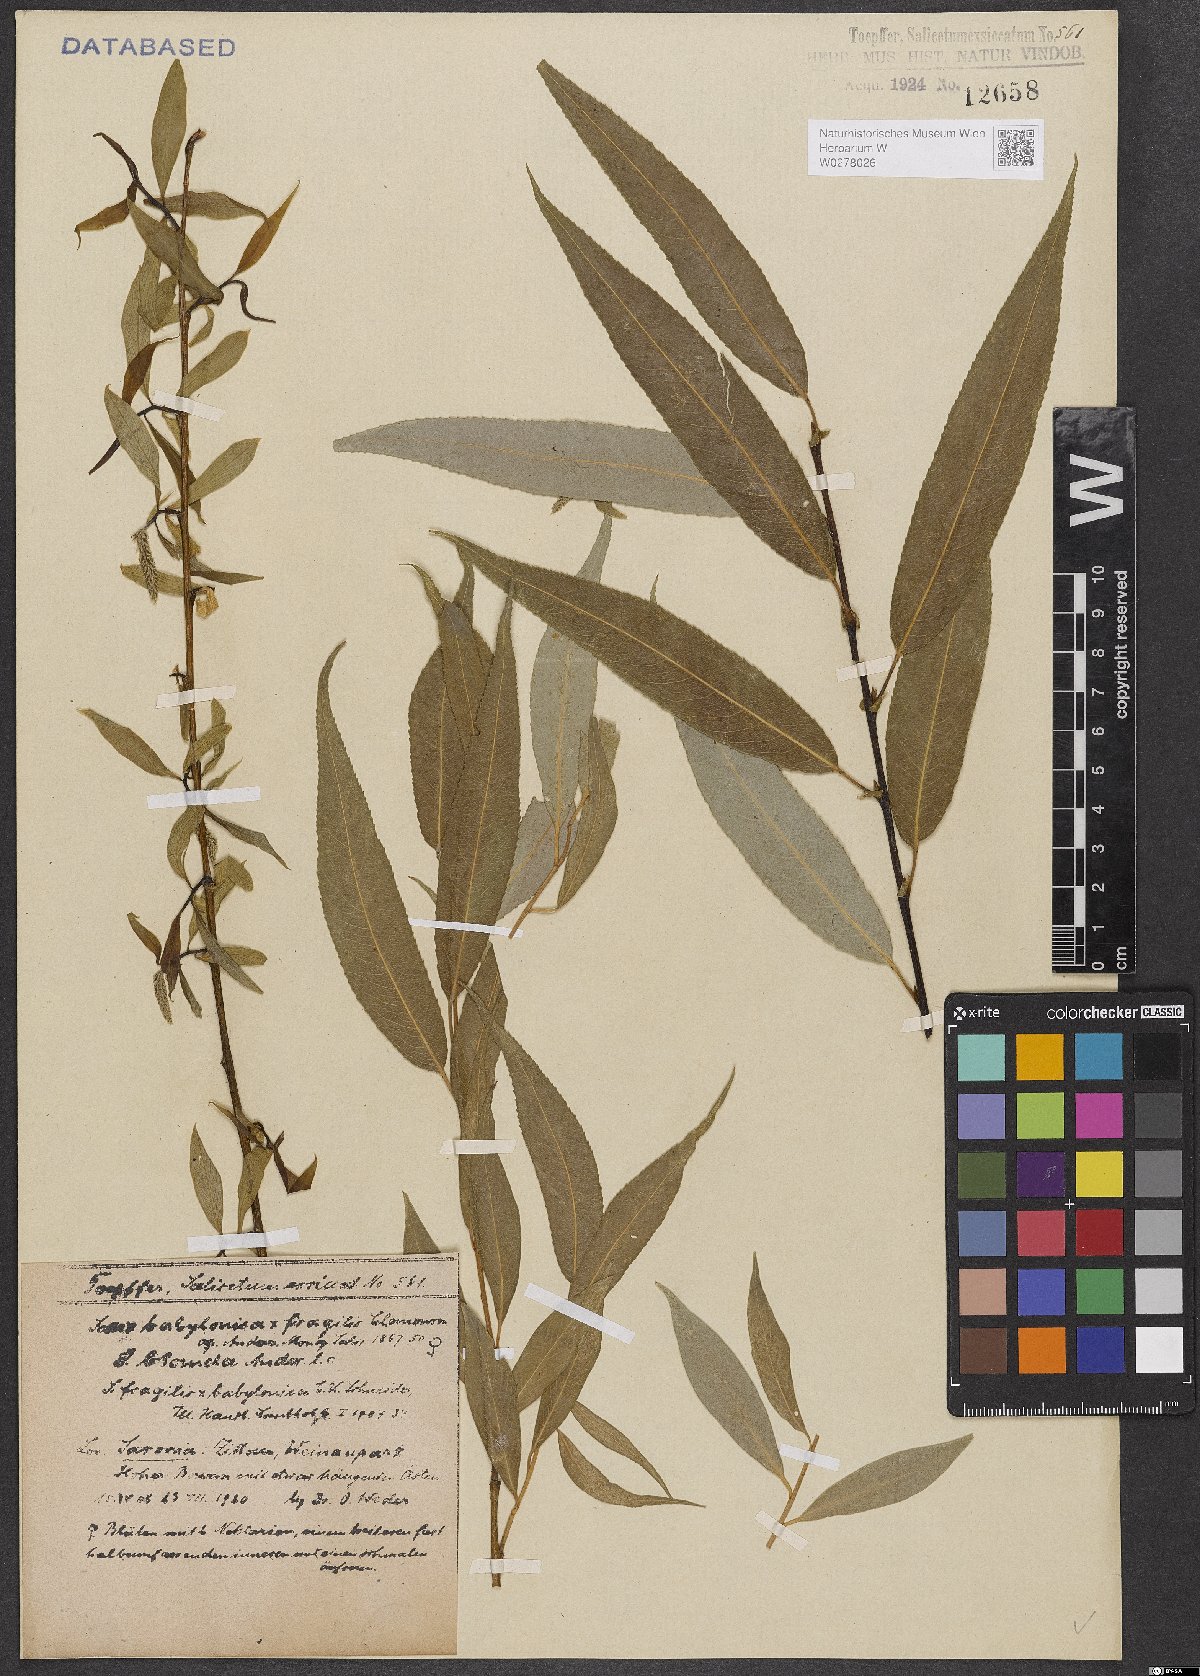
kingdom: Plantae
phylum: Tracheophyta
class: Magnoliopsida
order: Malpighiales
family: Salicaceae
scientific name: Salicaceae
